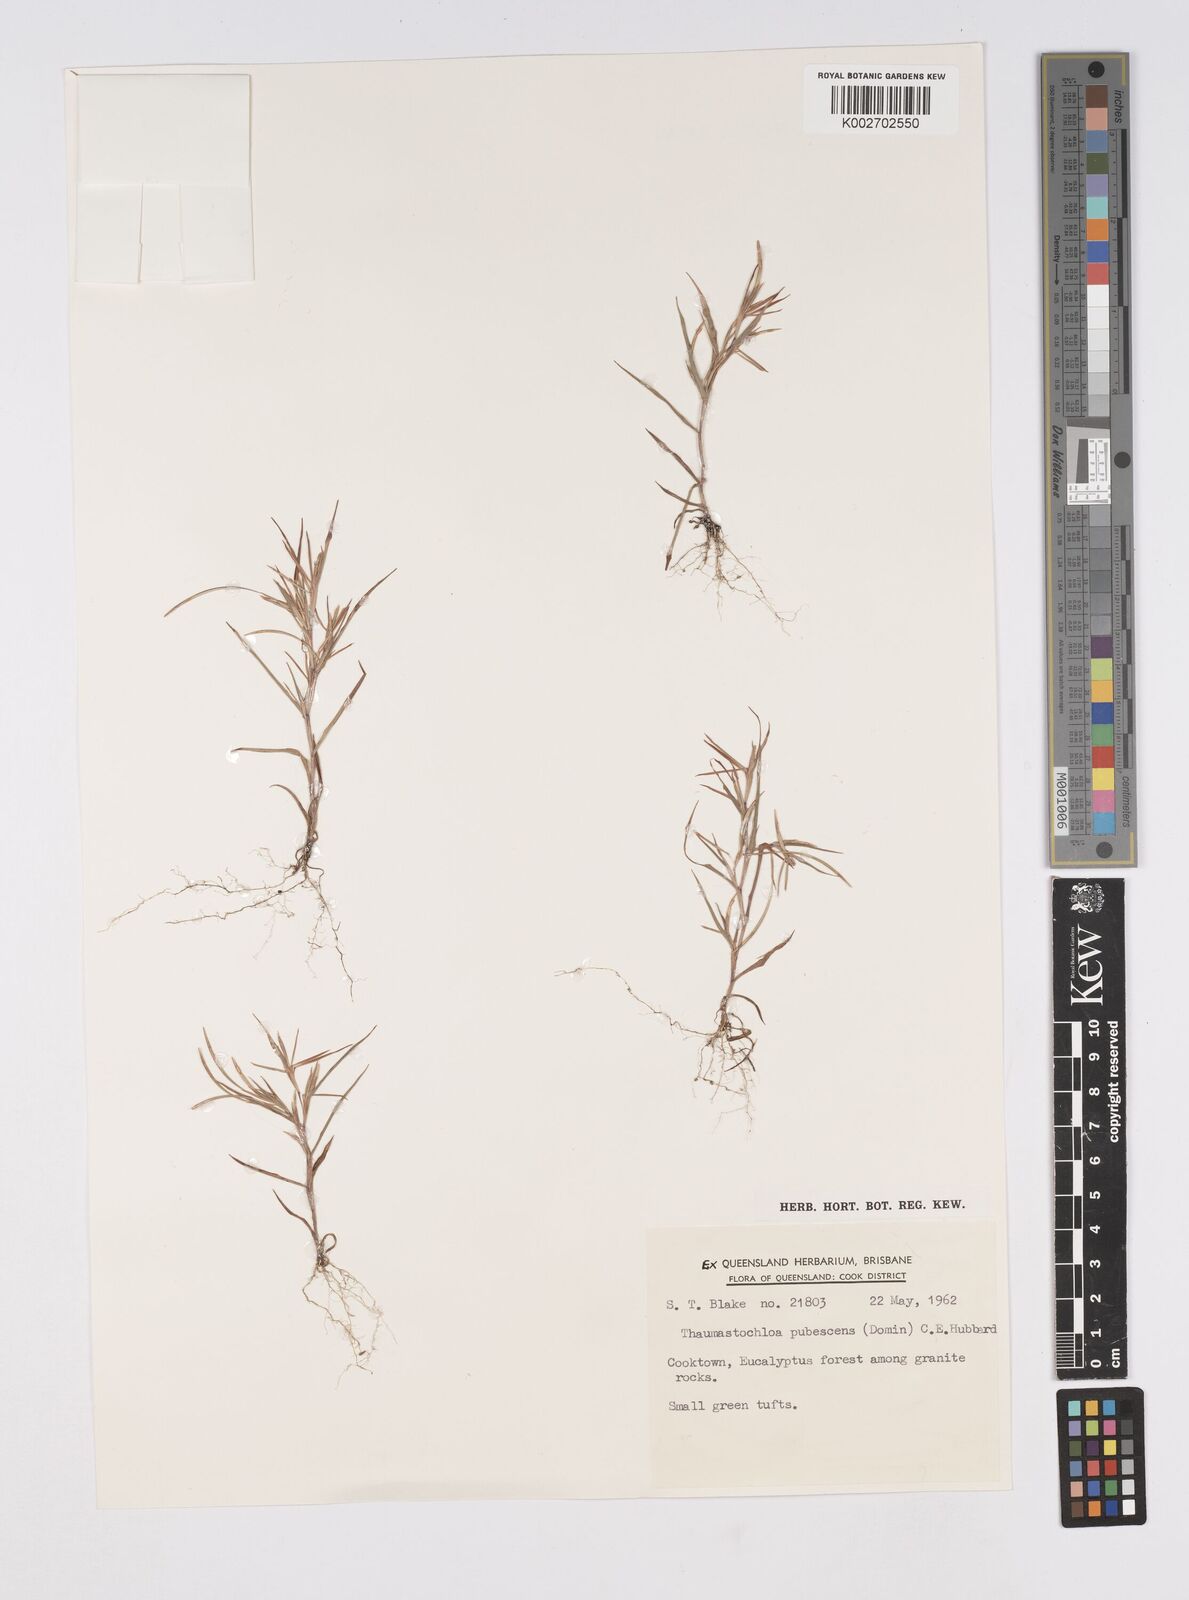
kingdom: Plantae
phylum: Tracheophyta
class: Liliopsida
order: Poales
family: Poaceae
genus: Thaumastochloa
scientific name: Thaumastochloa pubescens
